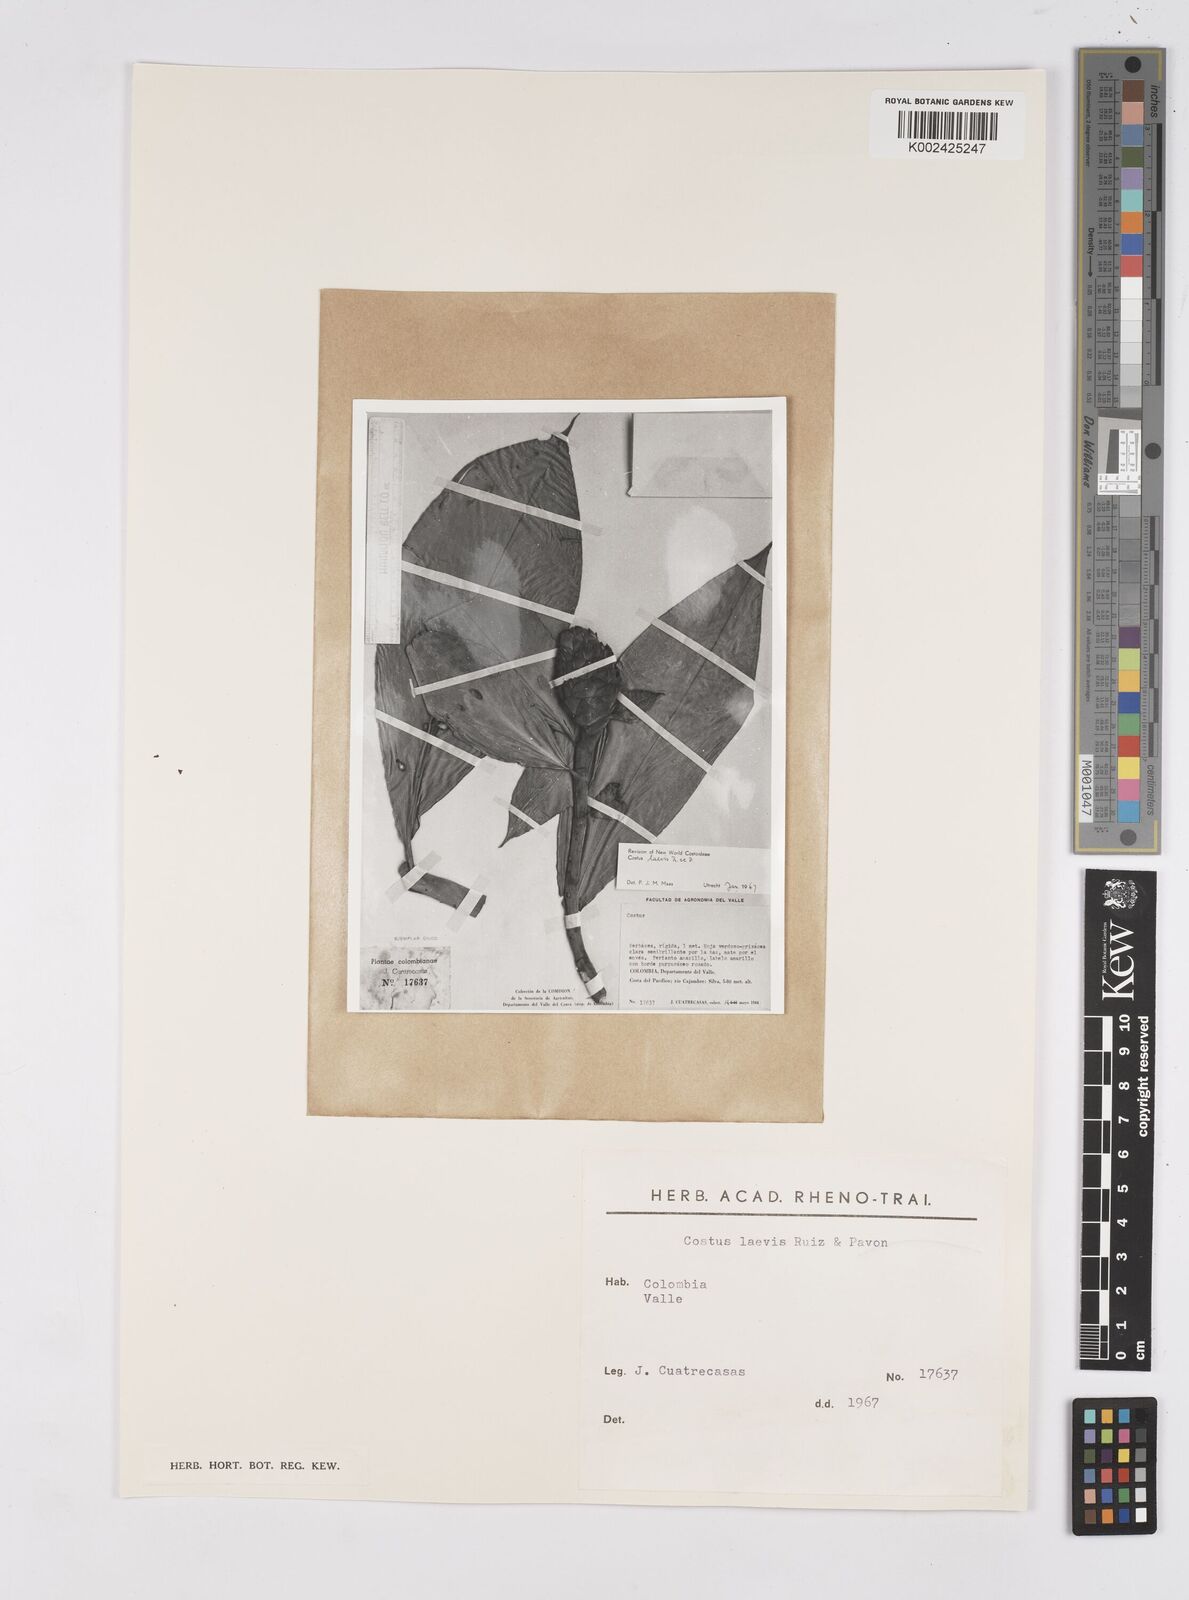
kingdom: Plantae
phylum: Tracheophyta
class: Liliopsida
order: Zingiberales
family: Costaceae
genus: Costus
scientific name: Costus laevis
